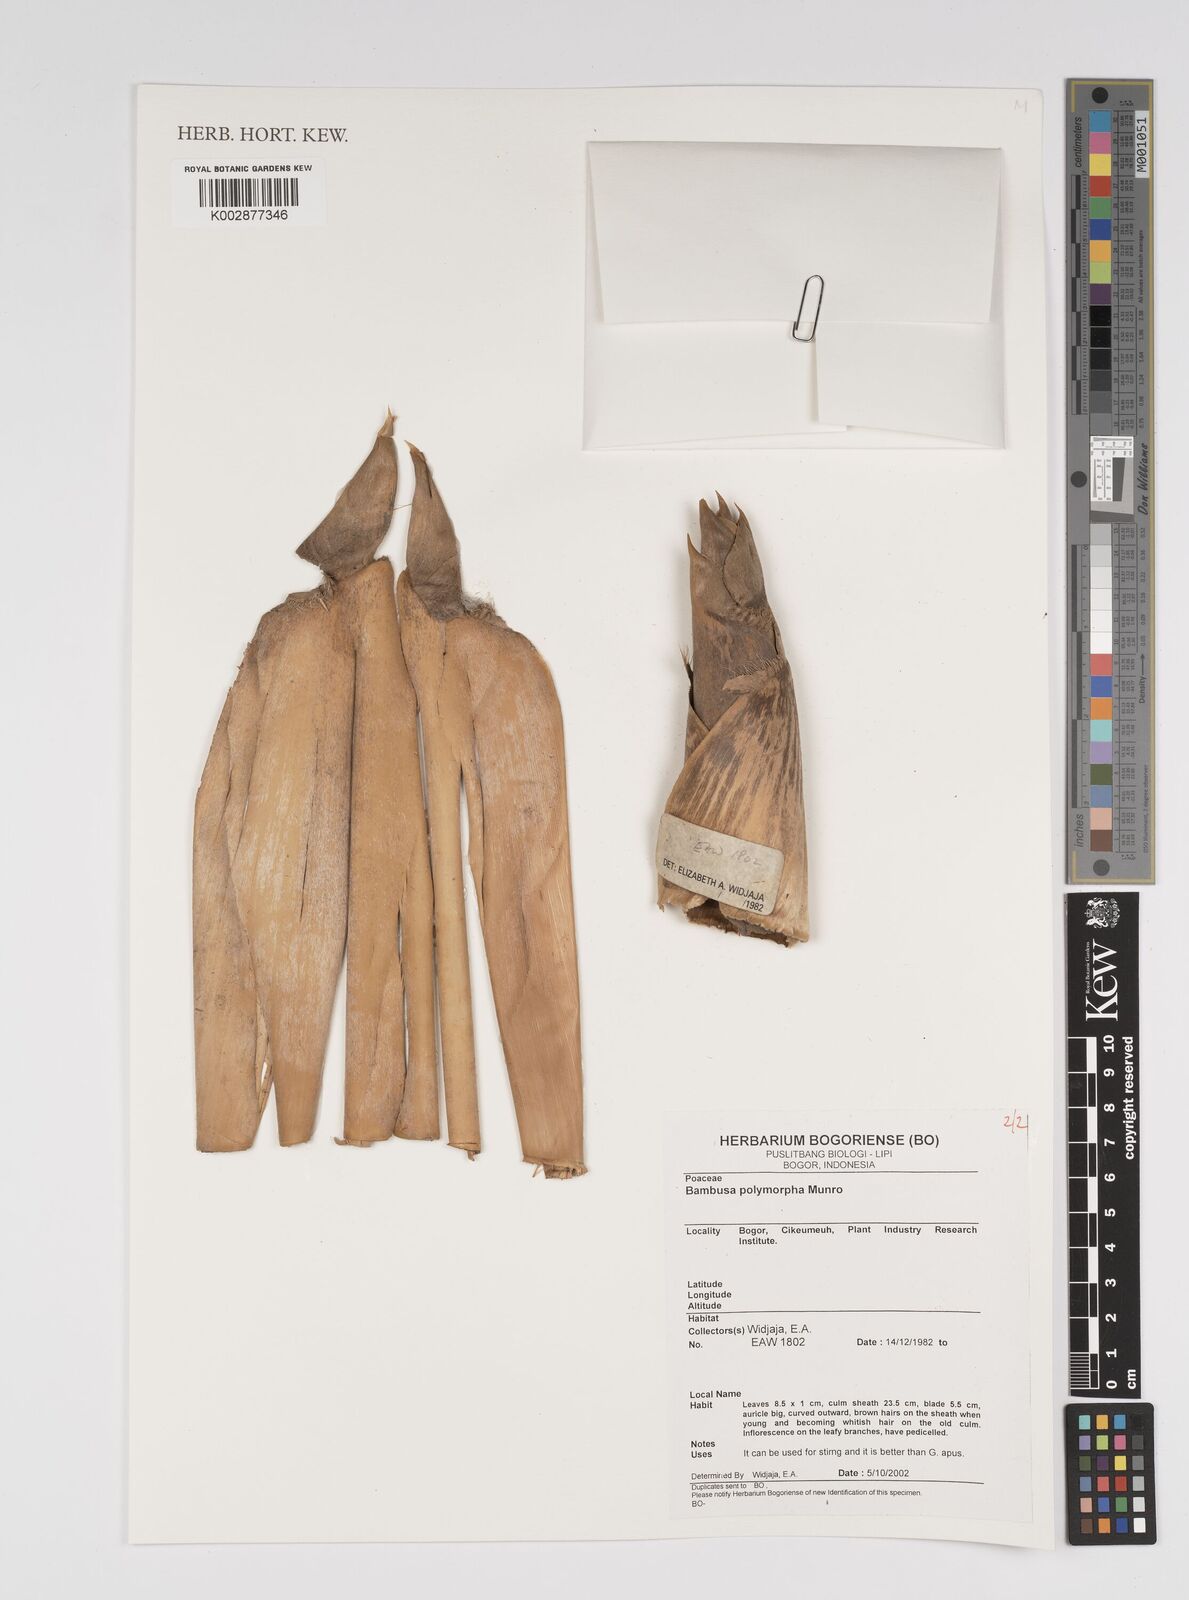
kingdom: Plantae
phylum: Tracheophyta
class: Liliopsida
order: Poales
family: Poaceae
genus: Bambusa
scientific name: Bambusa polymorpha
